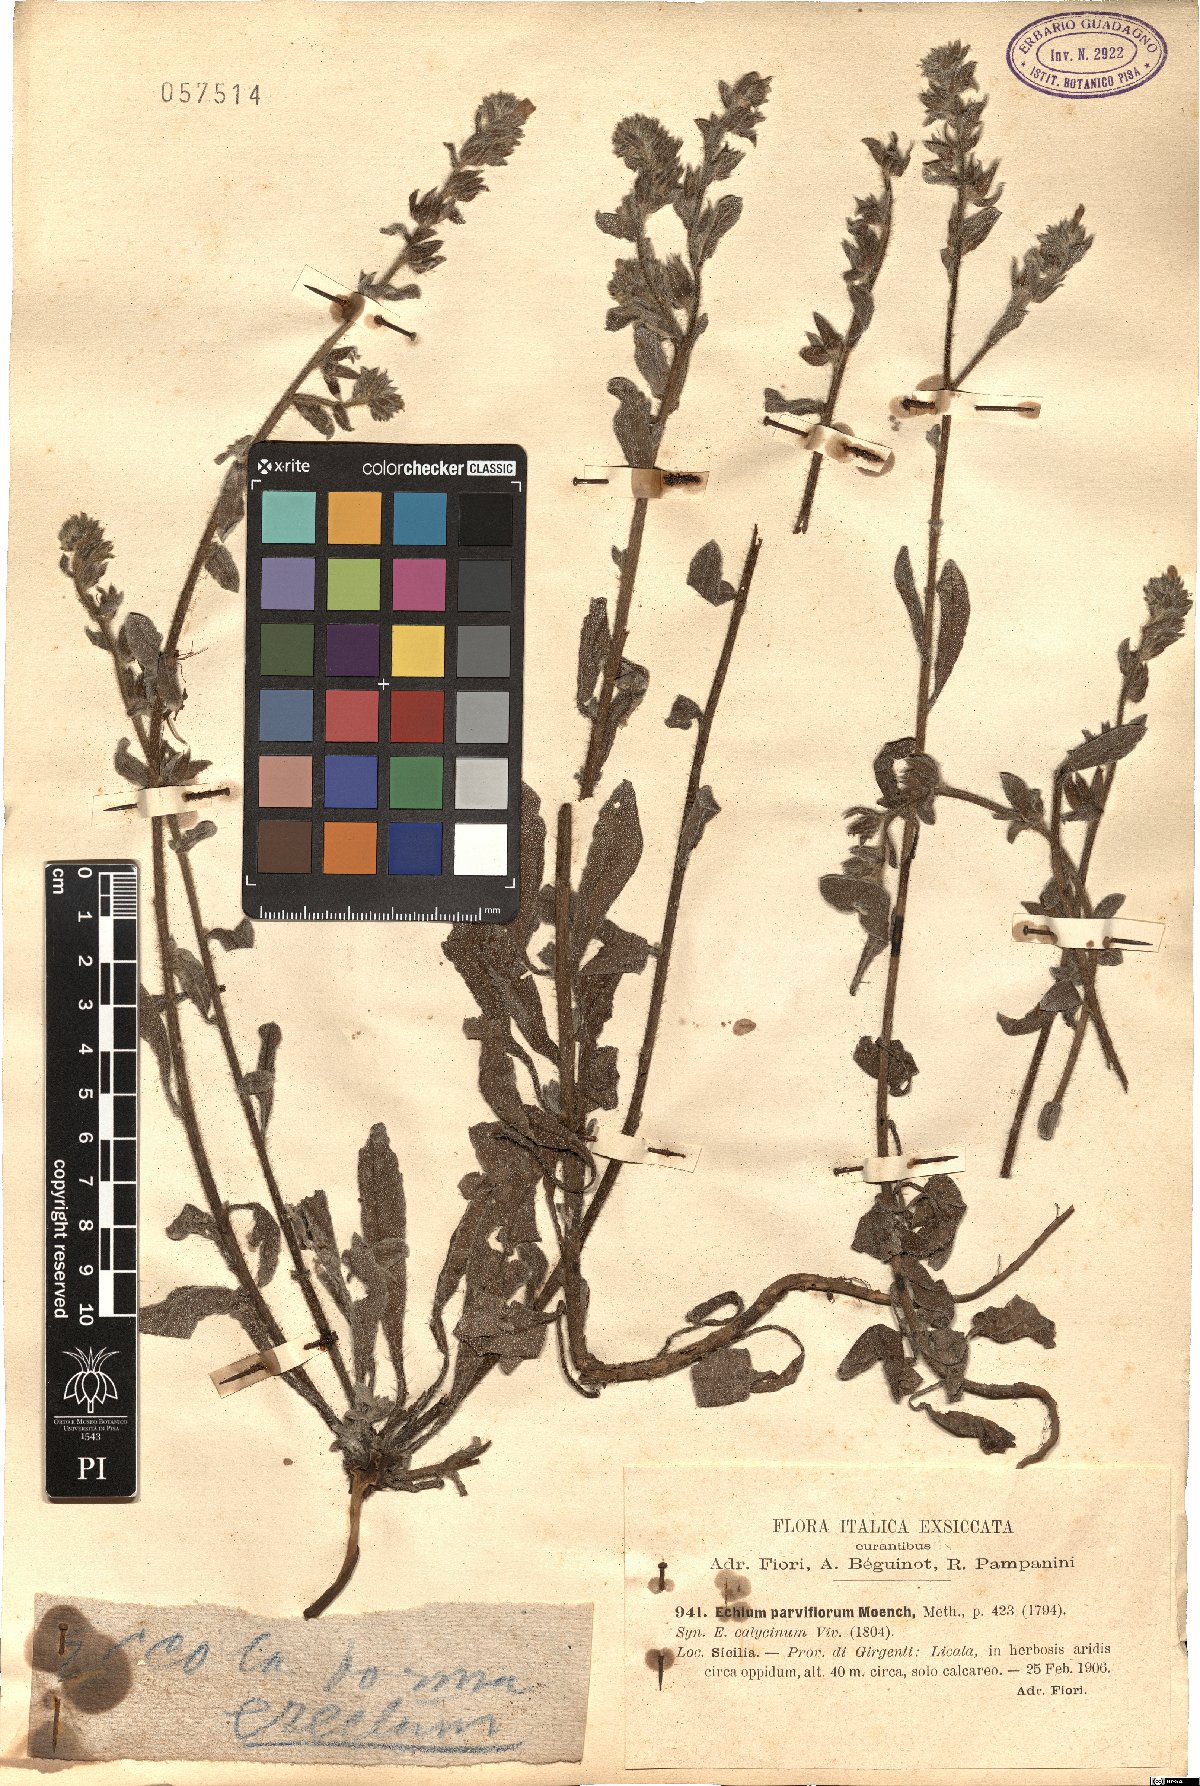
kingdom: Plantae
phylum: Tracheophyta
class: Magnoliopsida
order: Boraginales
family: Boraginaceae
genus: Echium
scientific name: Echium parviflorum
